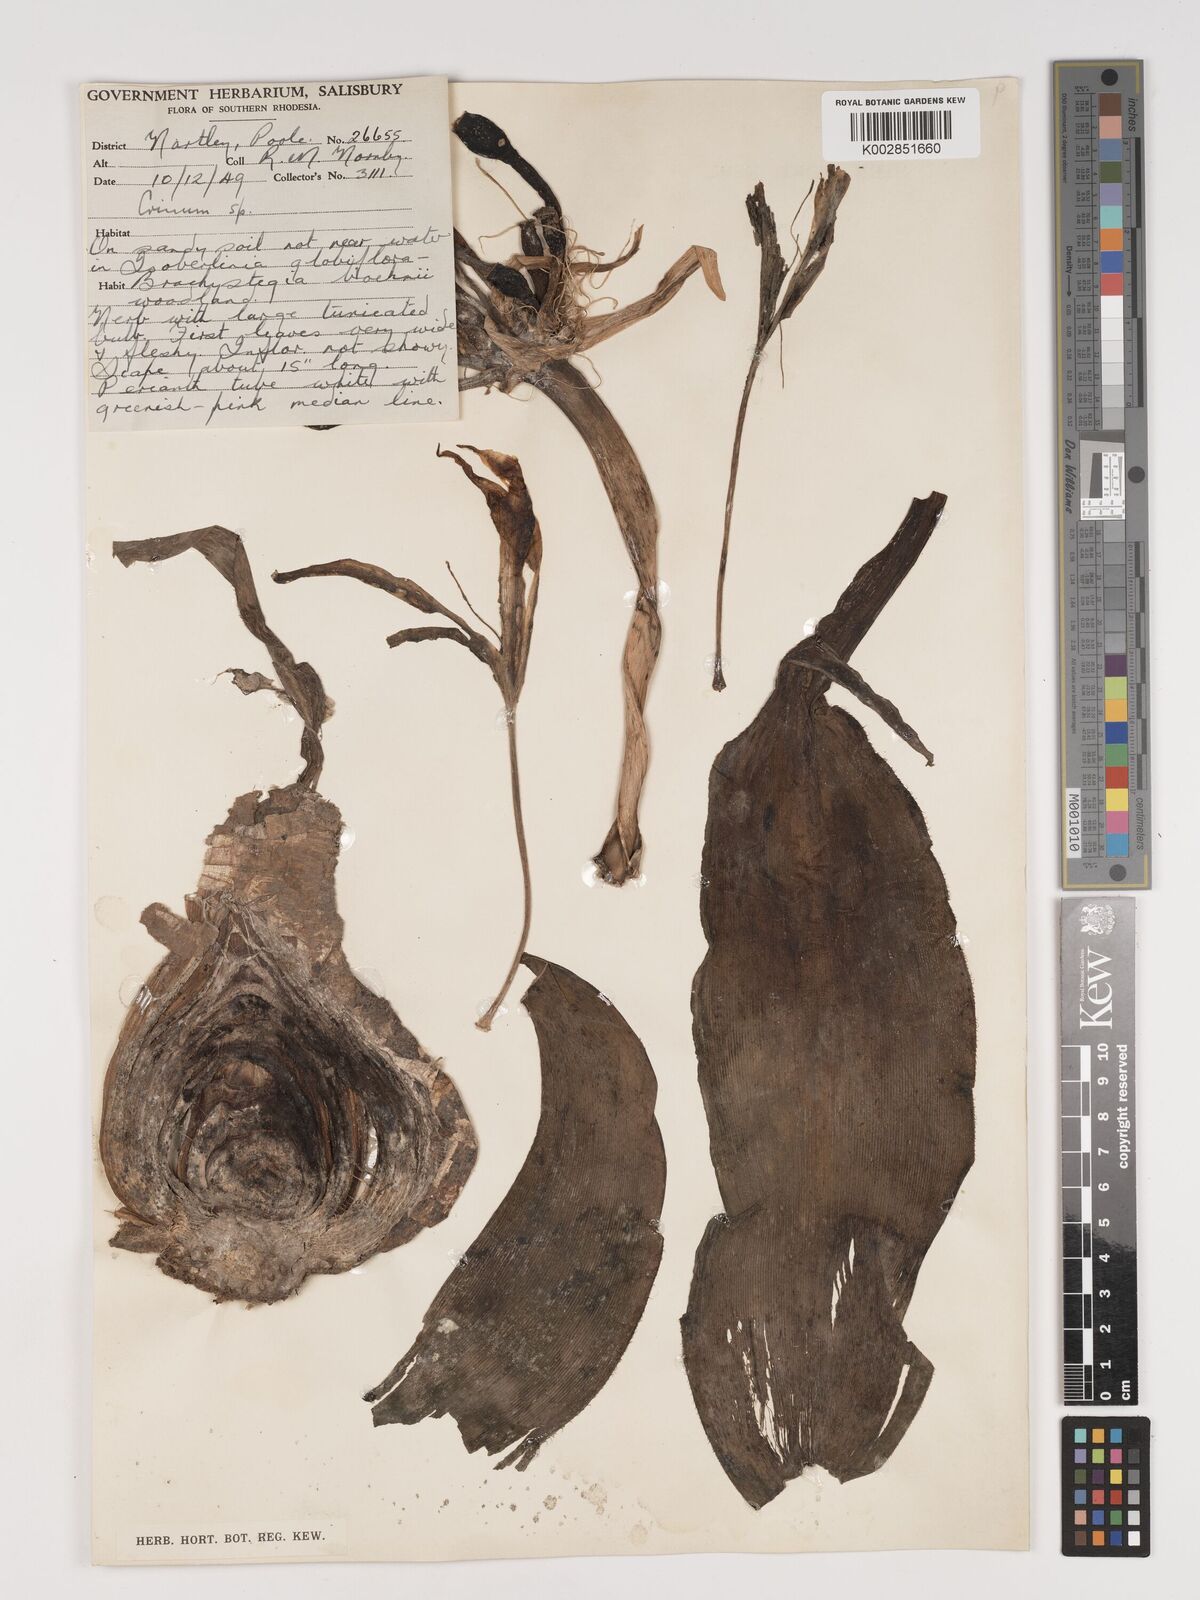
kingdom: Plantae
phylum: Tracheophyta
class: Liliopsida
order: Asparagales
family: Amaryllidaceae
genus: Crinum
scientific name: Crinum graminicola
